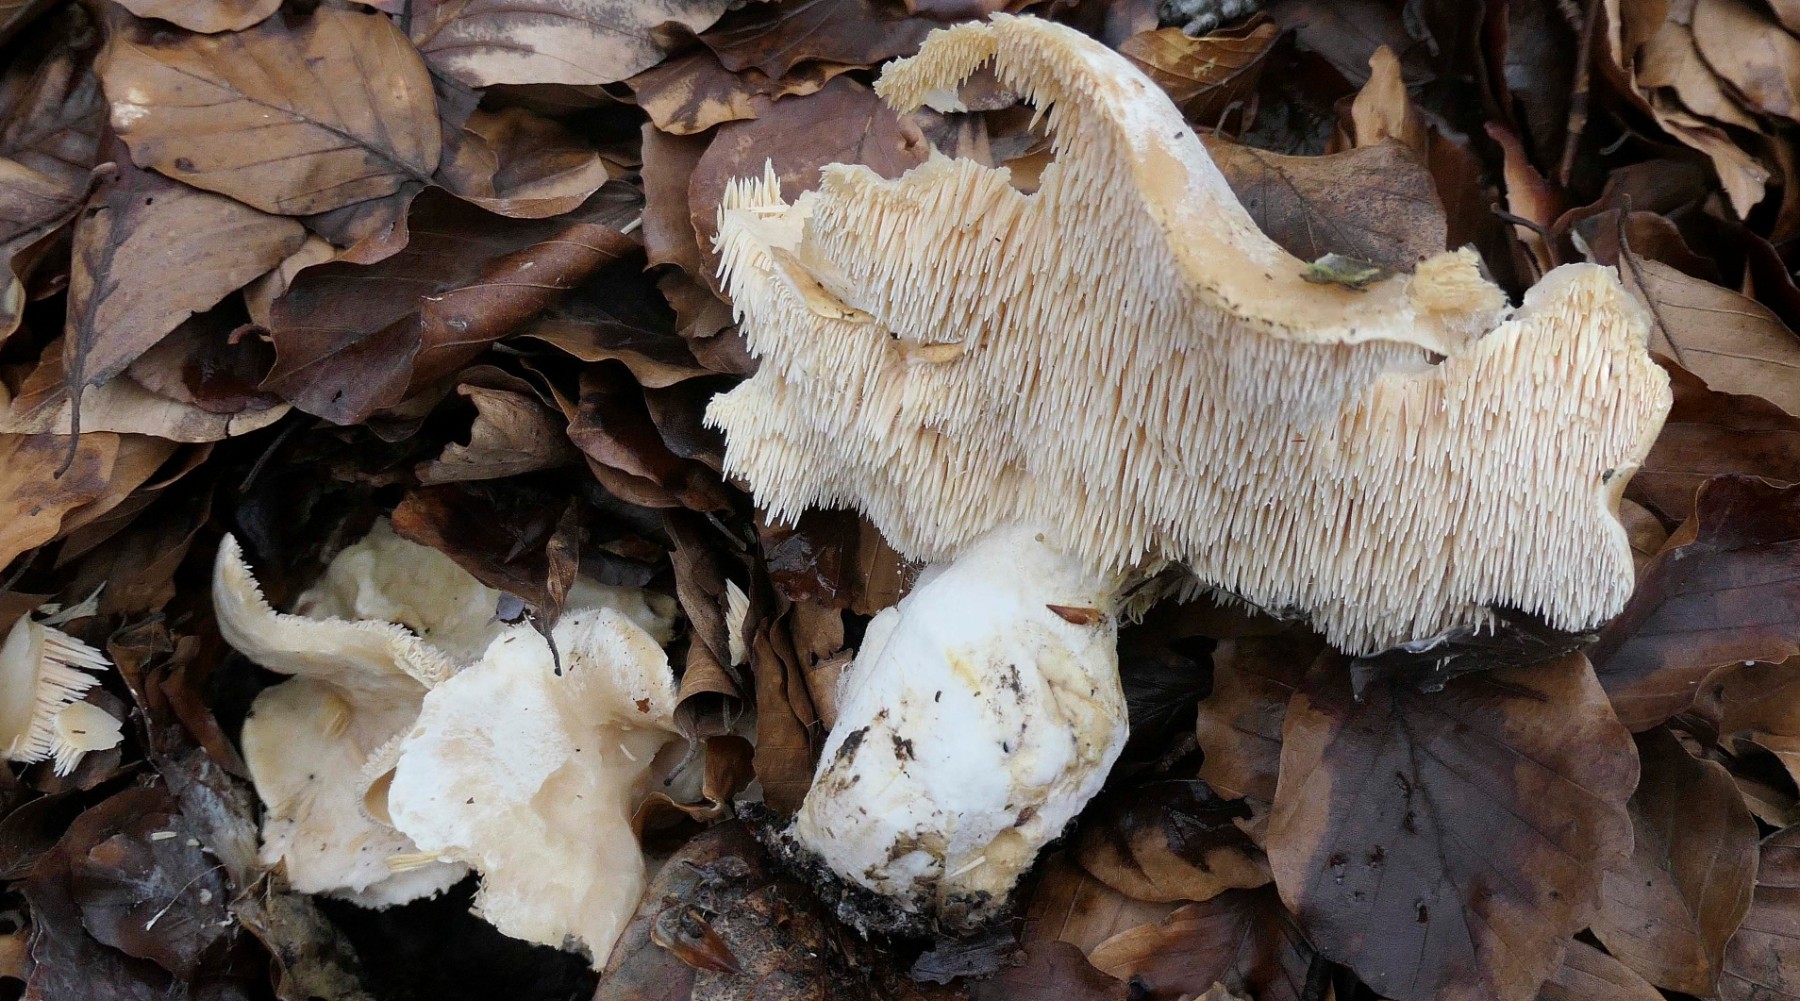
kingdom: Fungi
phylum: Basidiomycota
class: Agaricomycetes
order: Cantharellales
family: Hydnaceae
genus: Hydnum
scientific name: Hydnum
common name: pigsvamp
